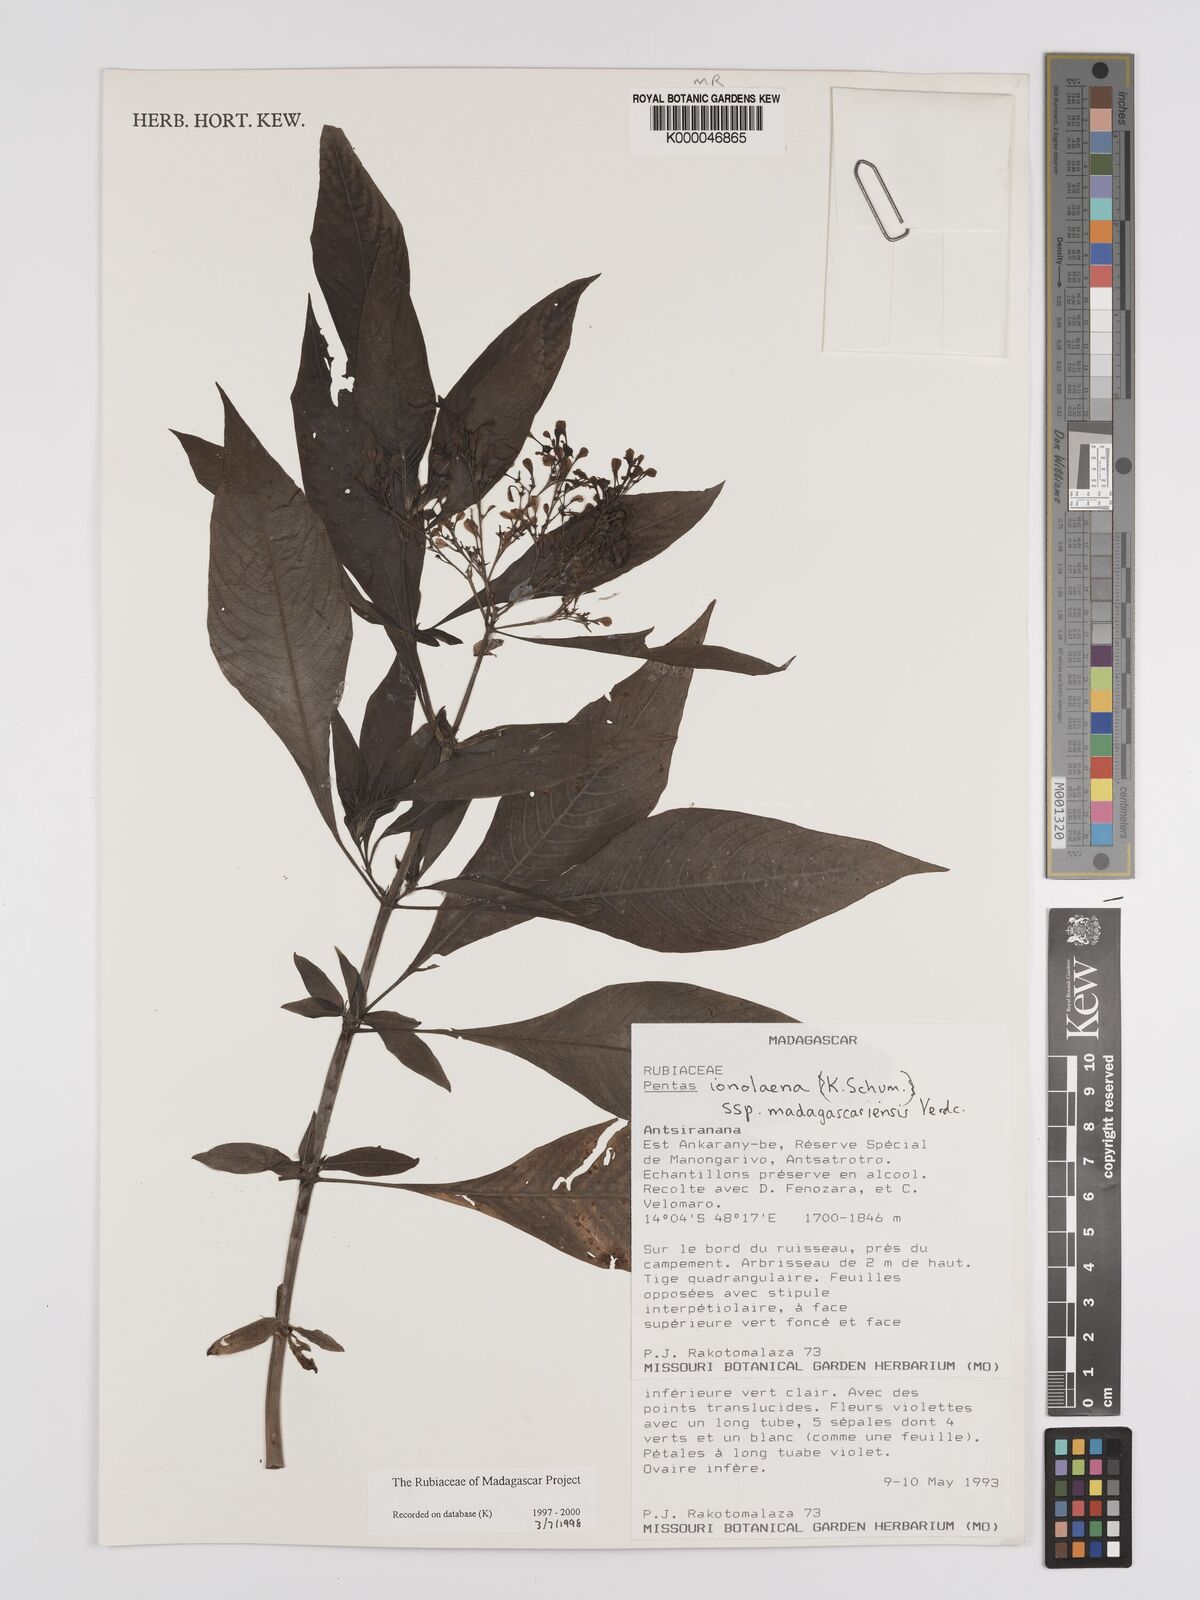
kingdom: Plantae
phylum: Tracheophyta
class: Magnoliopsida
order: Lamiales
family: Acanthaceae
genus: Justicia
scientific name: Justicia
